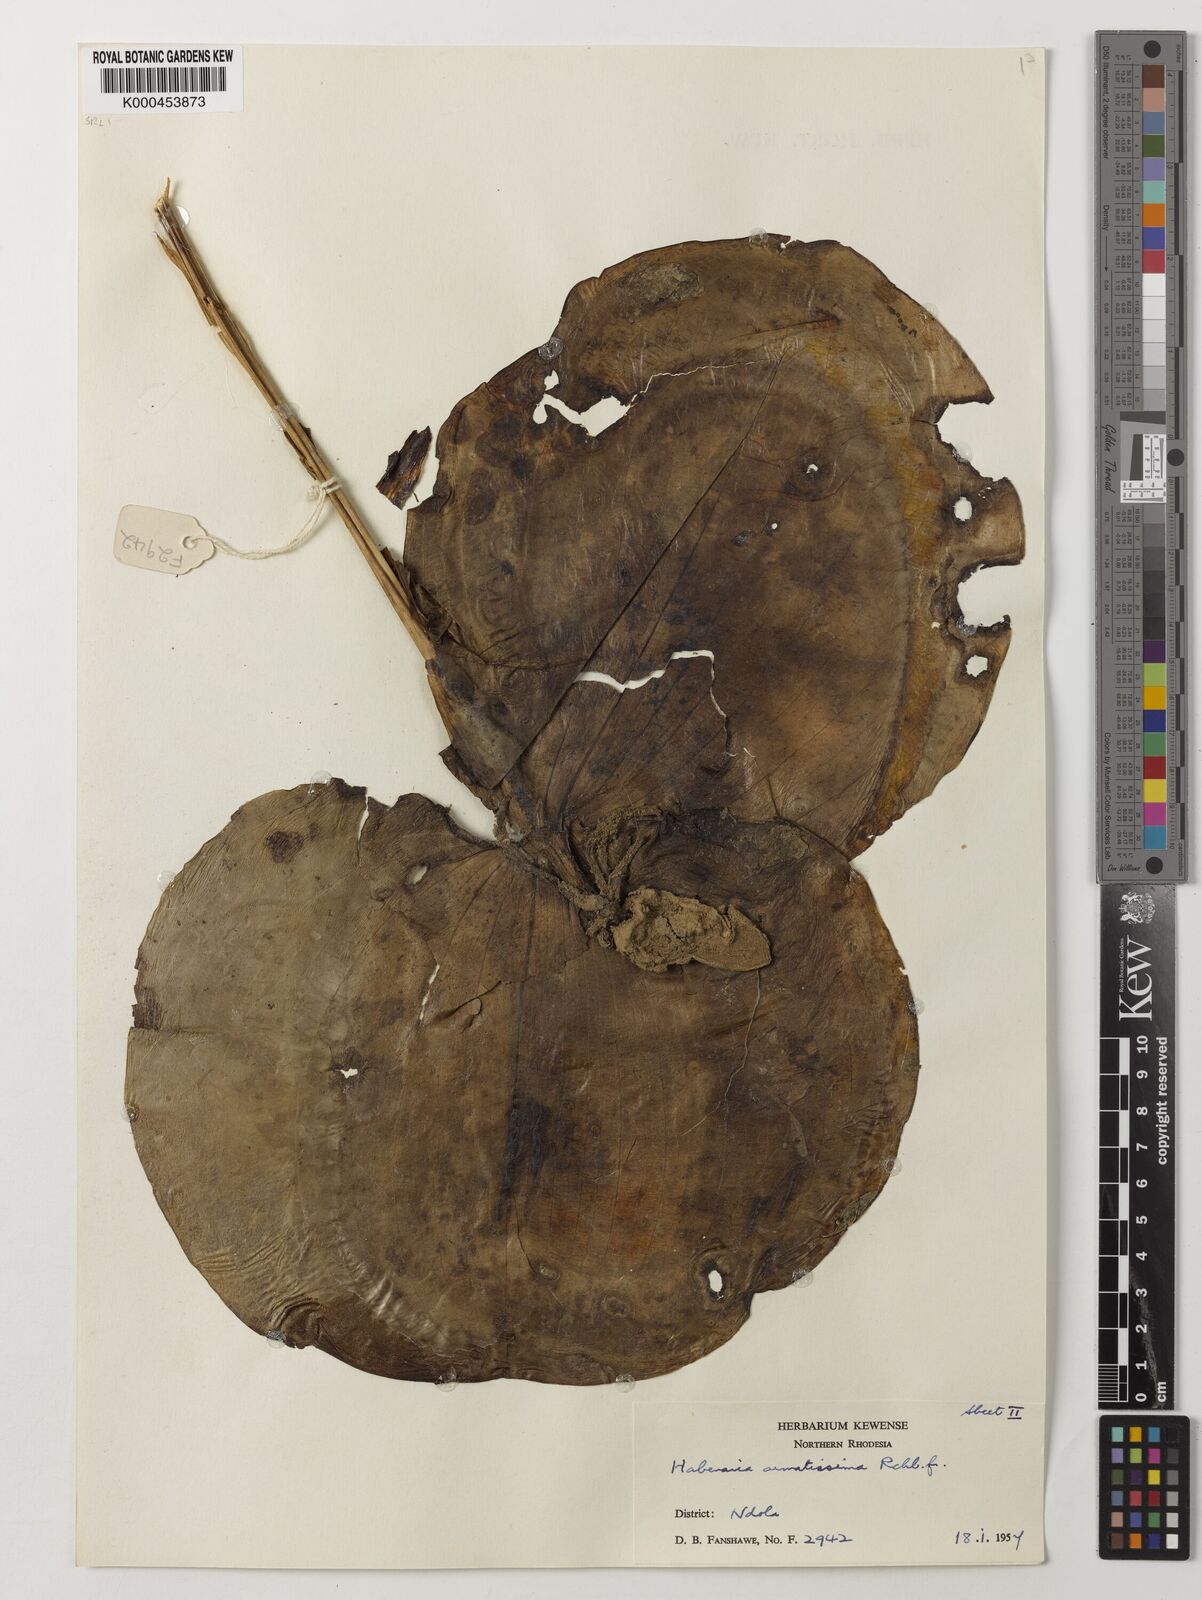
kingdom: Plantae
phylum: Tracheophyta
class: Liliopsida
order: Asparagales
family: Orchidaceae
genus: Habenaria
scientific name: Habenaria armatissima
